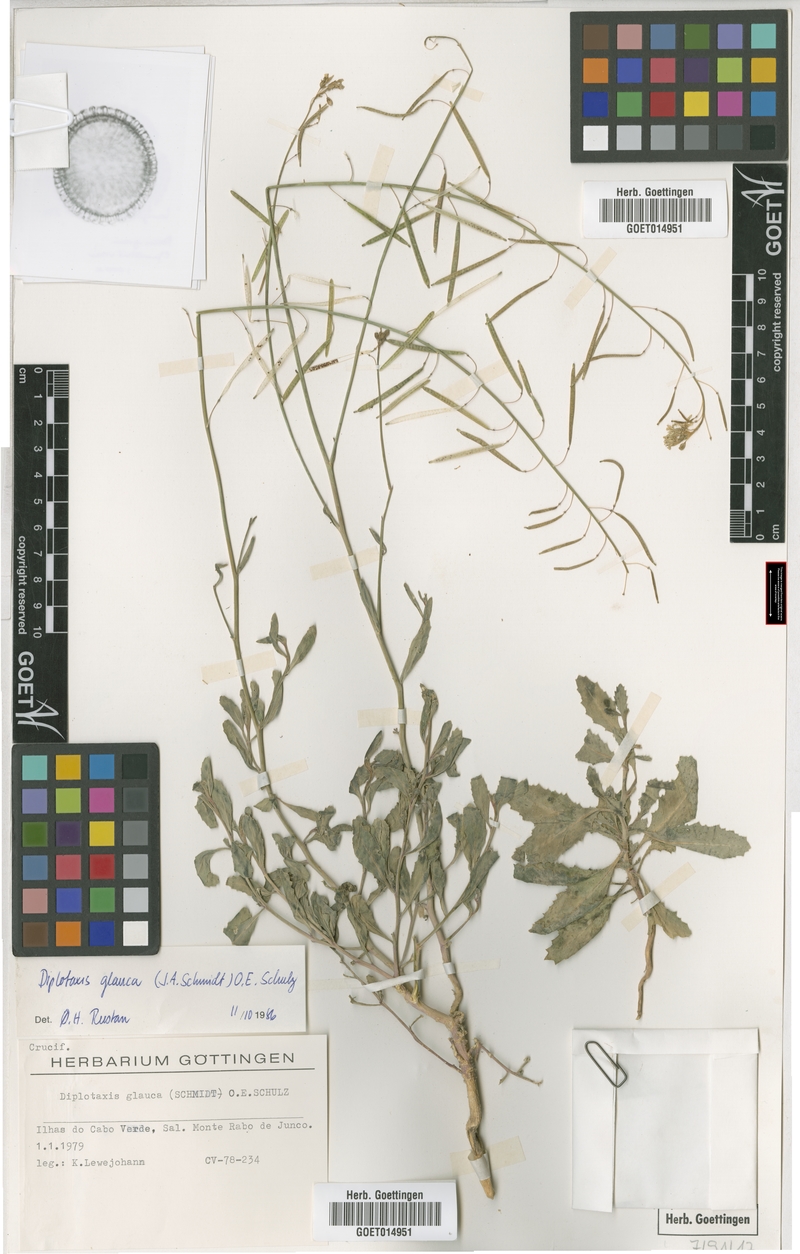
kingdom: Plantae
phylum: Tracheophyta
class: Magnoliopsida
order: Brassicales
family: Brassicaceae
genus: Diplotaxis
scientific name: Diplotaxis glauca
